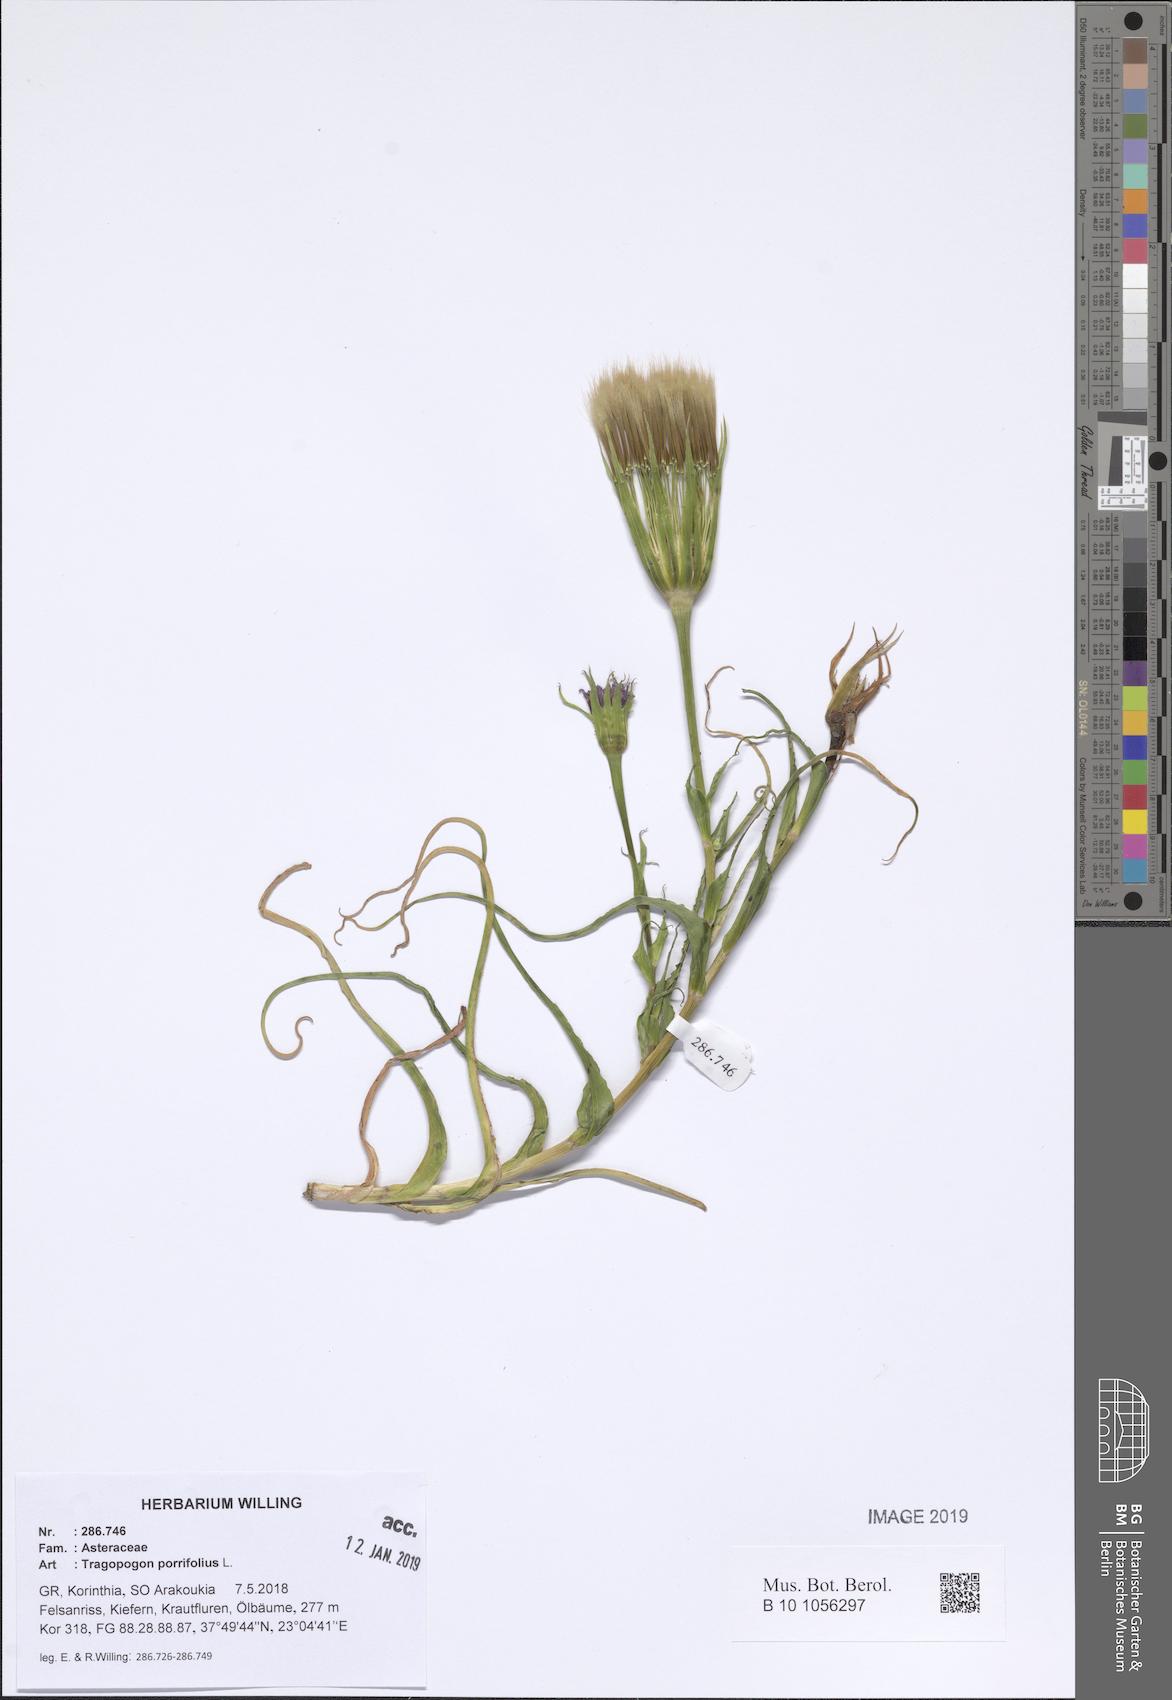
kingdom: Plantae
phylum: Tracheophyta
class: Magnoliopsida
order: Asterales
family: Asteraceae
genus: Tragopogon
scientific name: Tragopogon porrifolius
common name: Salsify
